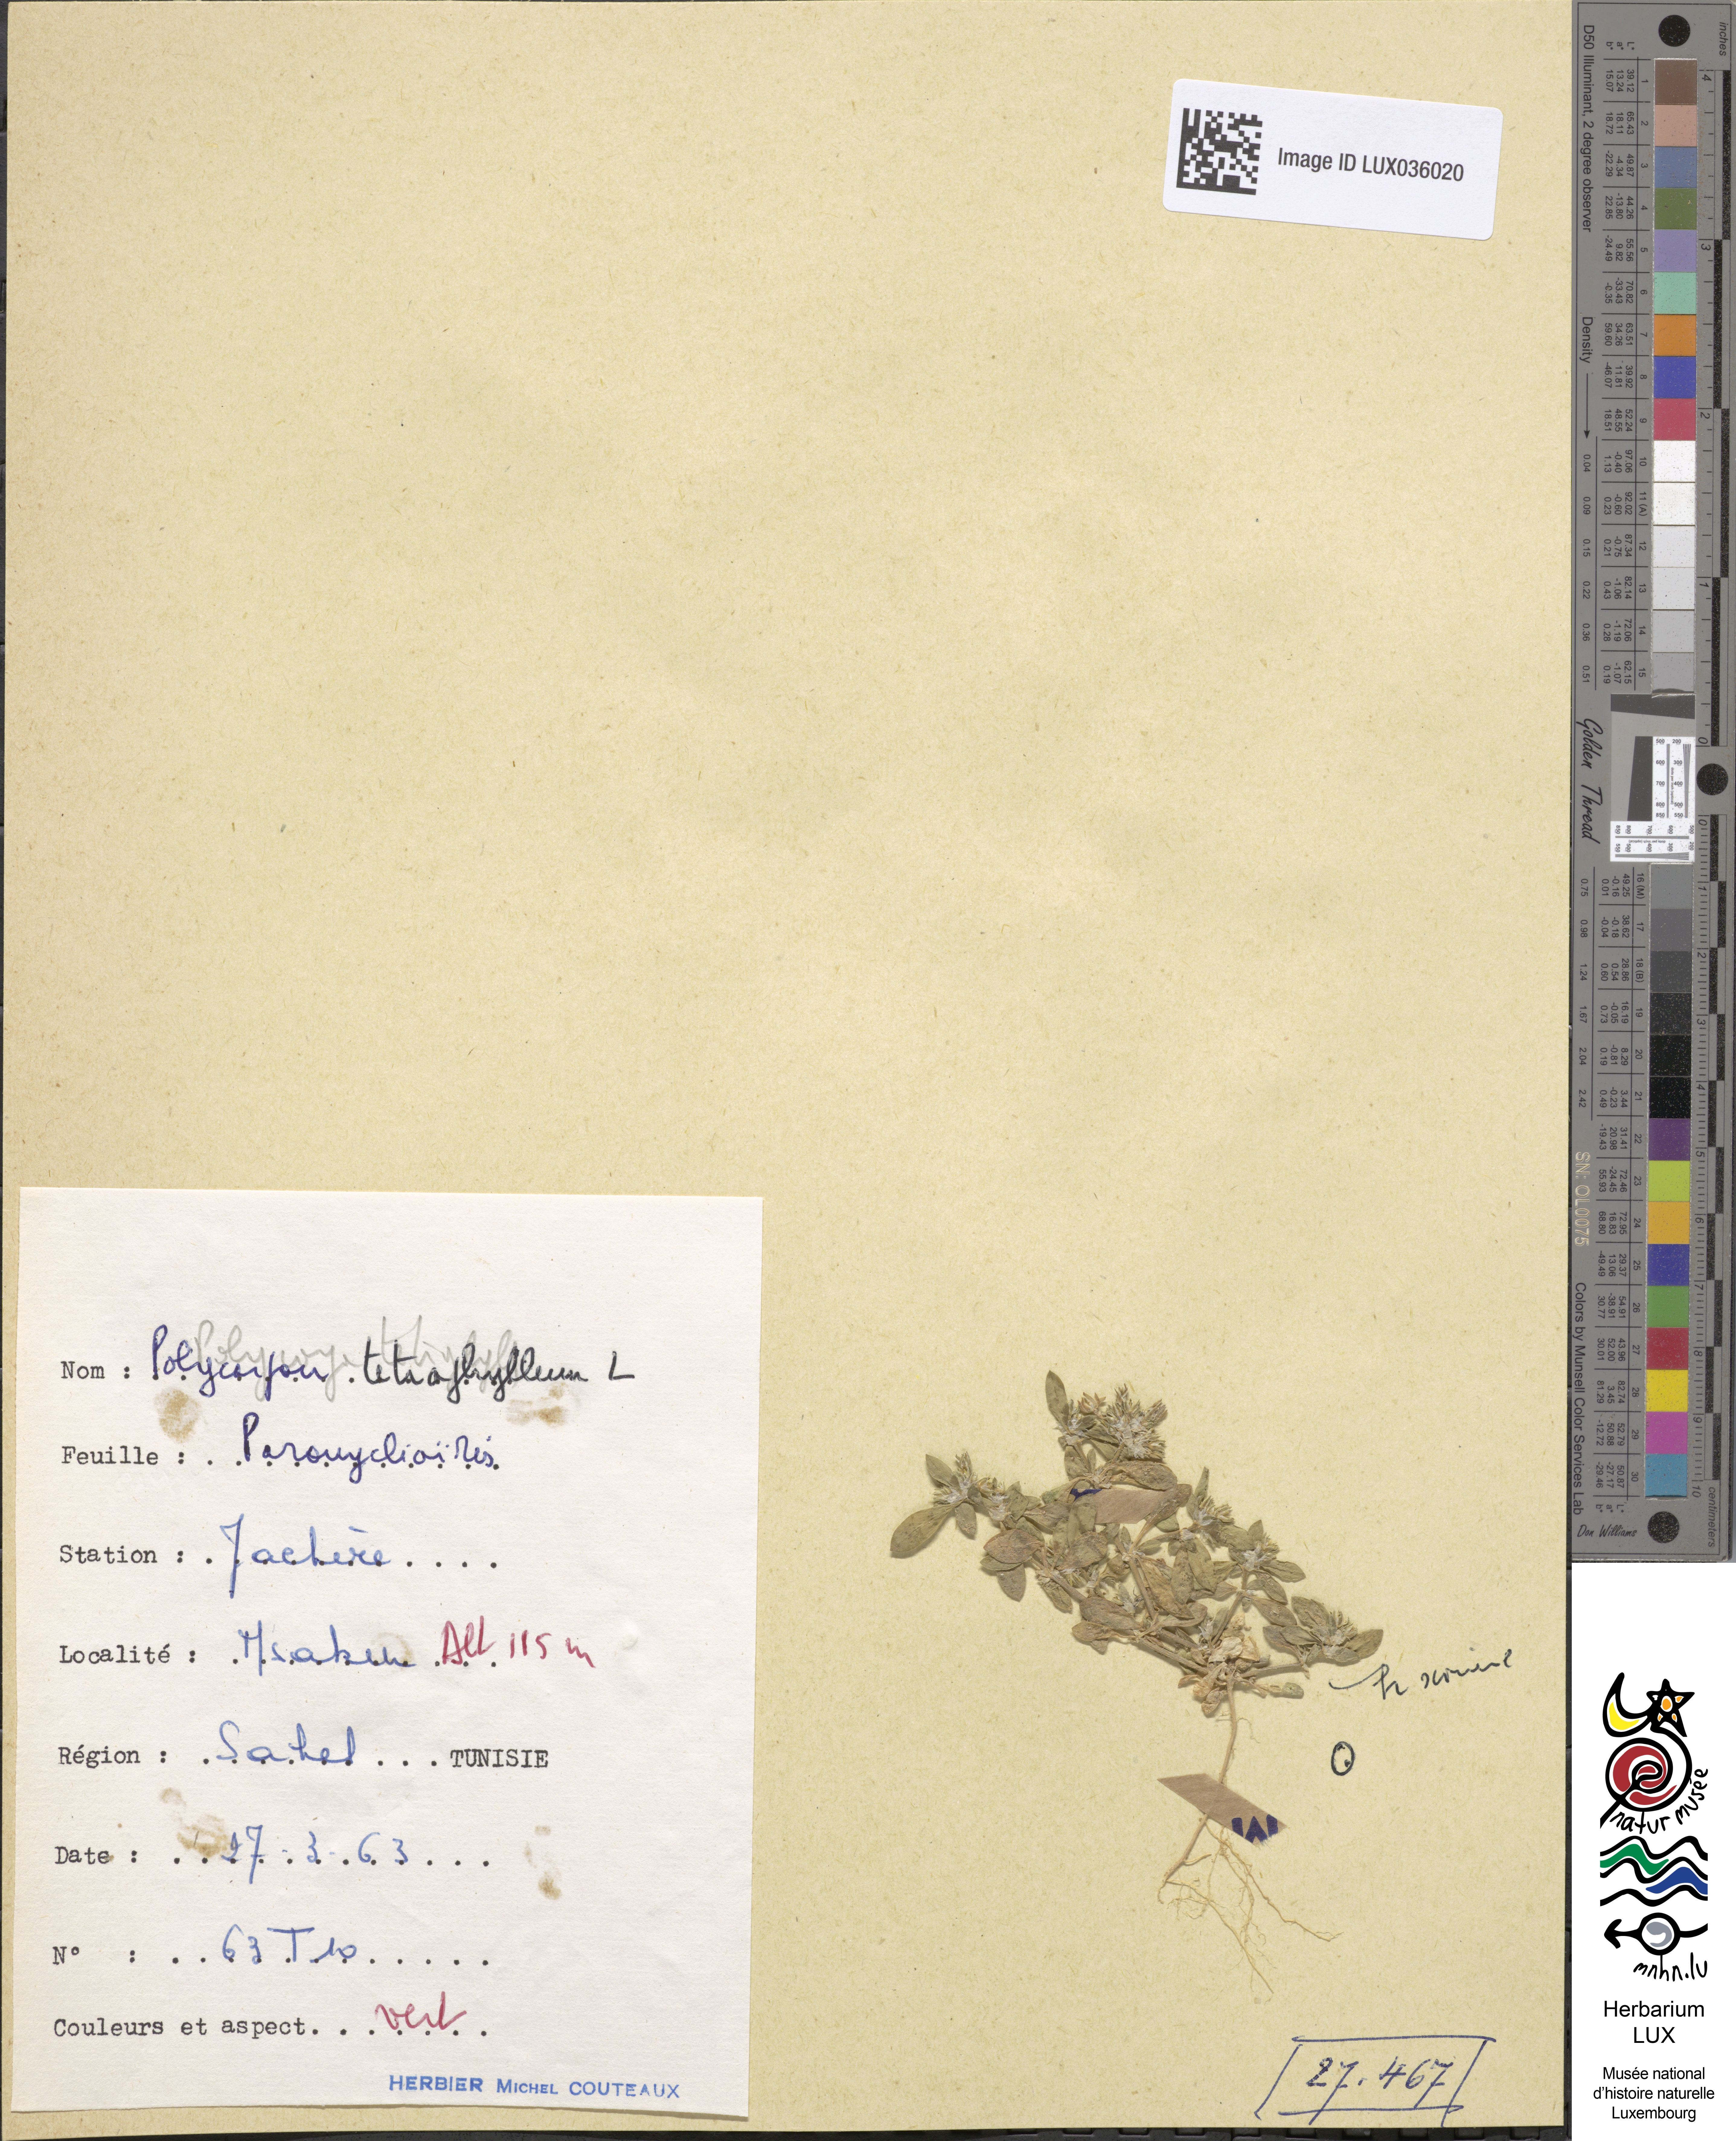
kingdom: Plantae
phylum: Tracheophyta
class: Magnoliopsida
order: Caryophyllales
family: Caryophyllaceae
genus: Polycarpon
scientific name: Polycarpon tetraphyllum
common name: Four-leaved all-seed
